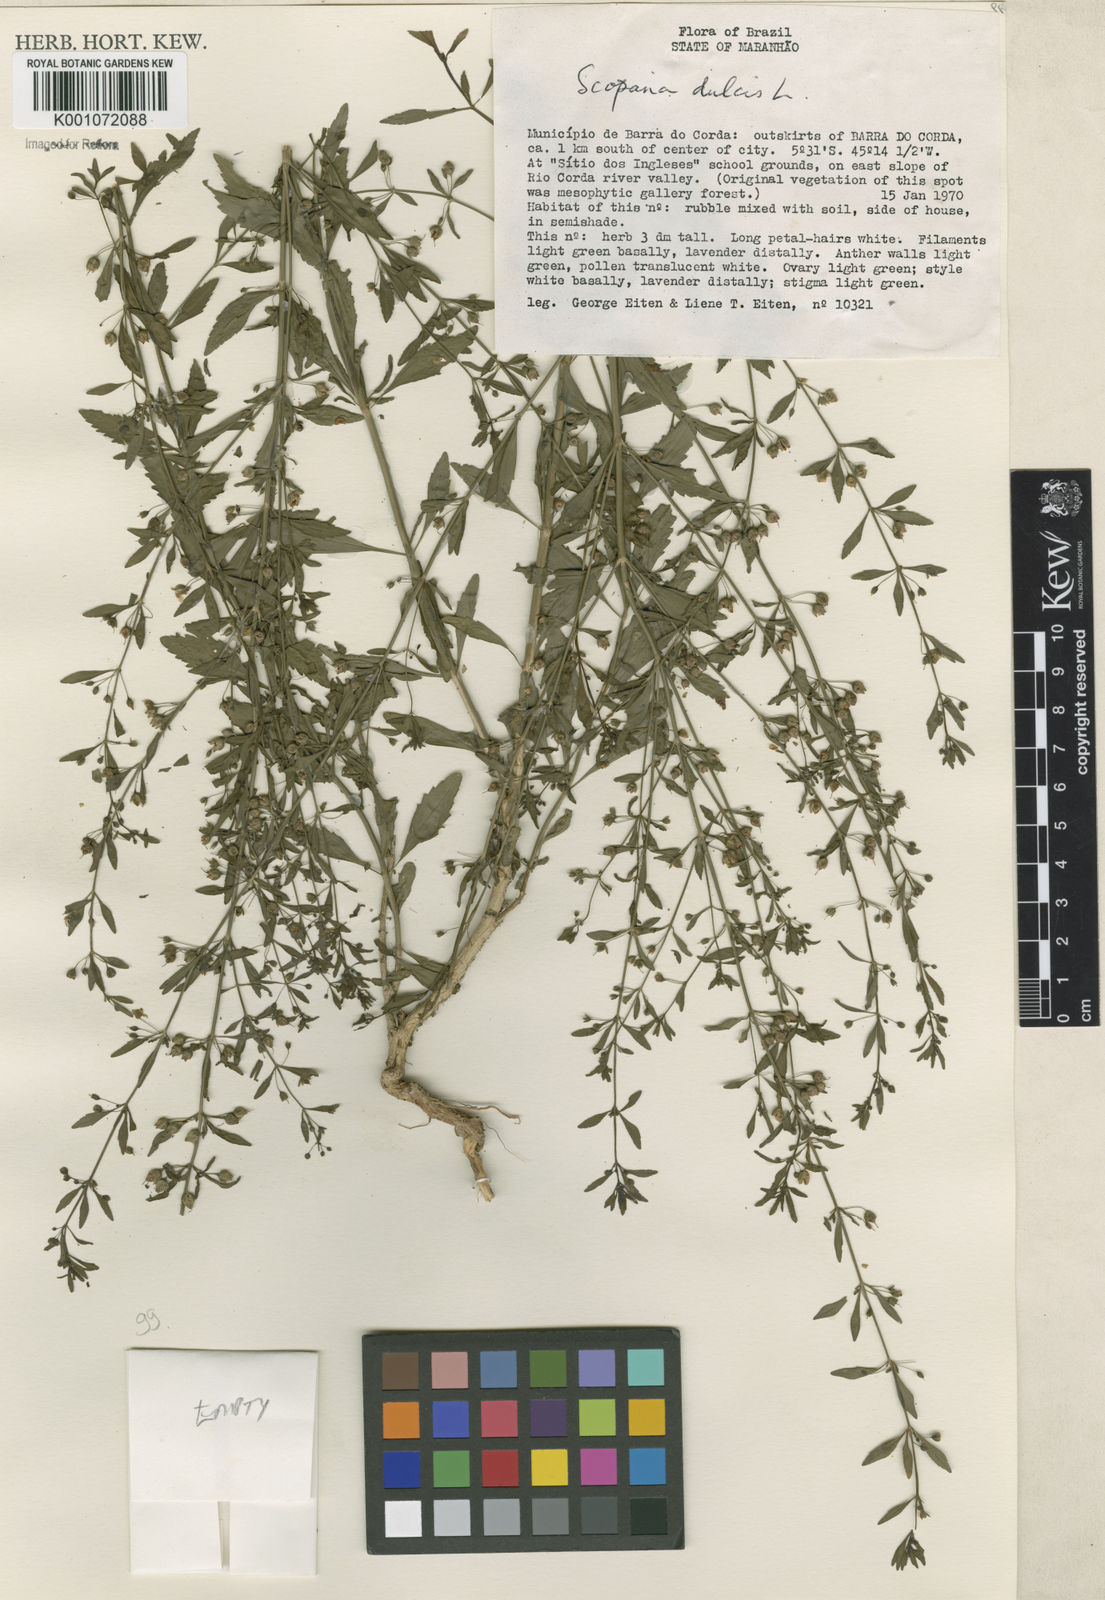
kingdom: Plantae
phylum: Tracheophyta
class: Magnoliopsida
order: Lamiales
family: Plantaginaceae
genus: Scoparia
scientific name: Scoparia dulcis
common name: Scoparia-weed
